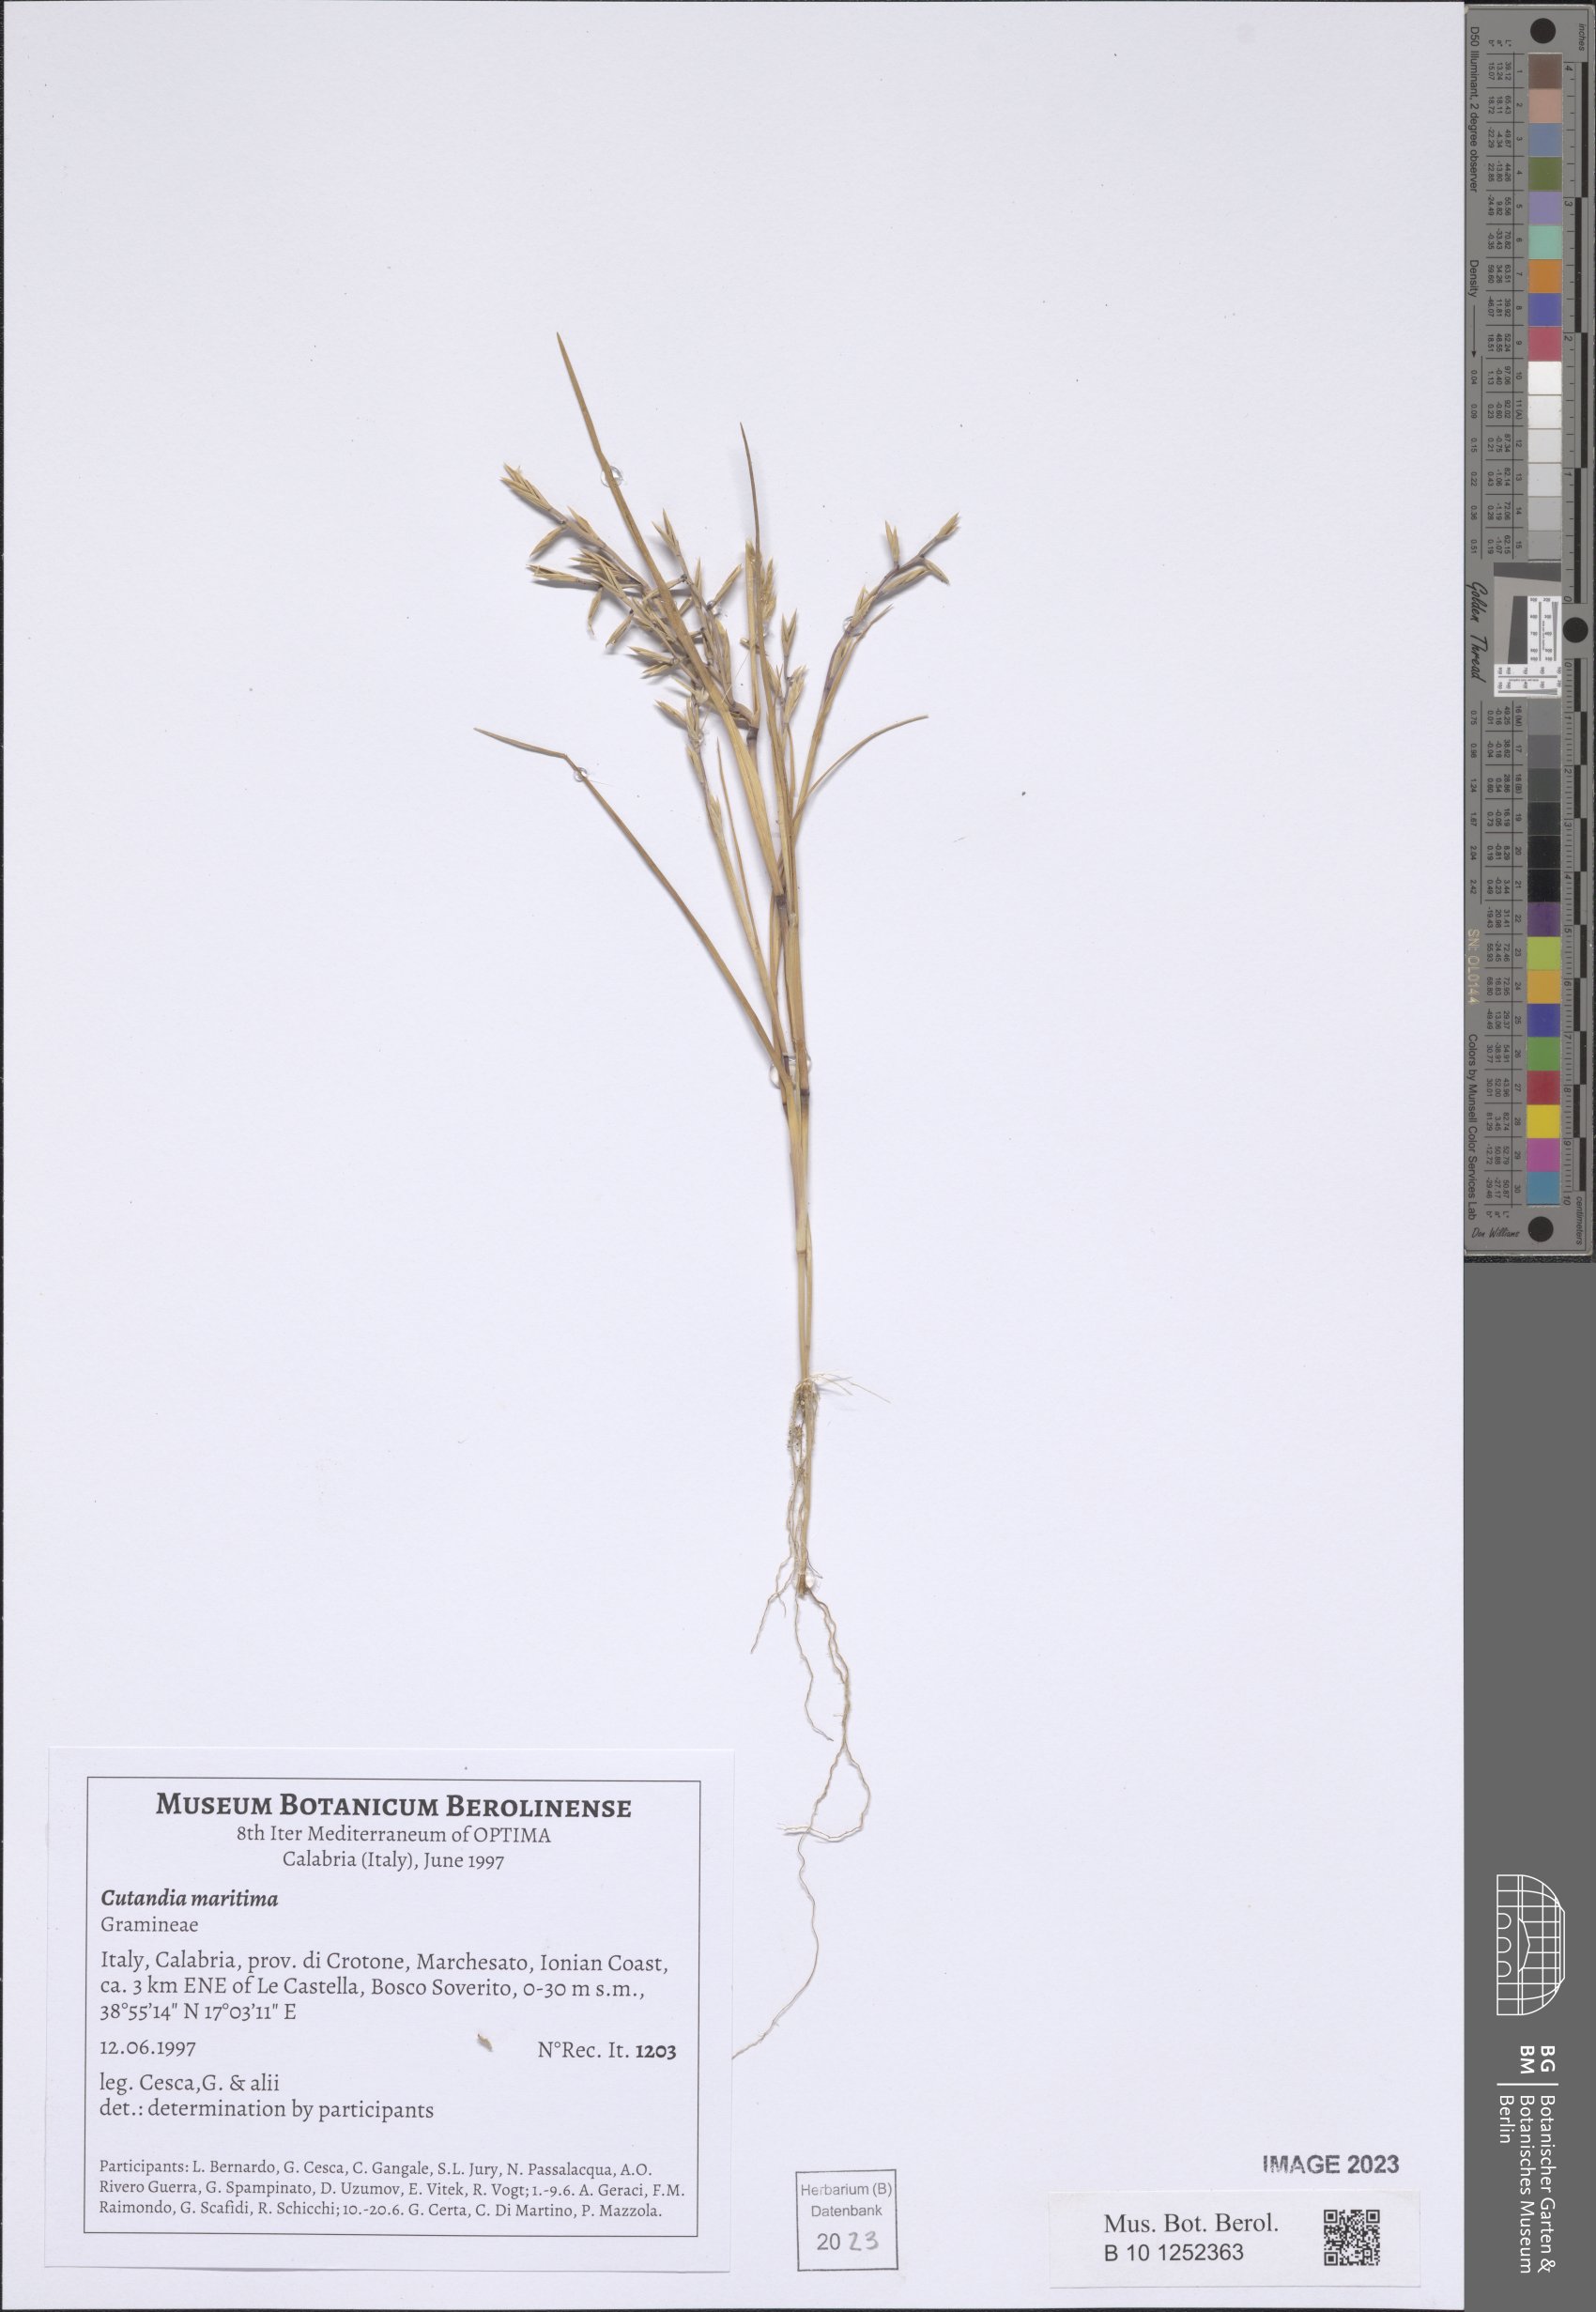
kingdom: Plantae
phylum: Tracheophyta
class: Liliopsida
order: Poales
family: Poaceae
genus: Cutandia
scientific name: Cutandia maritima
